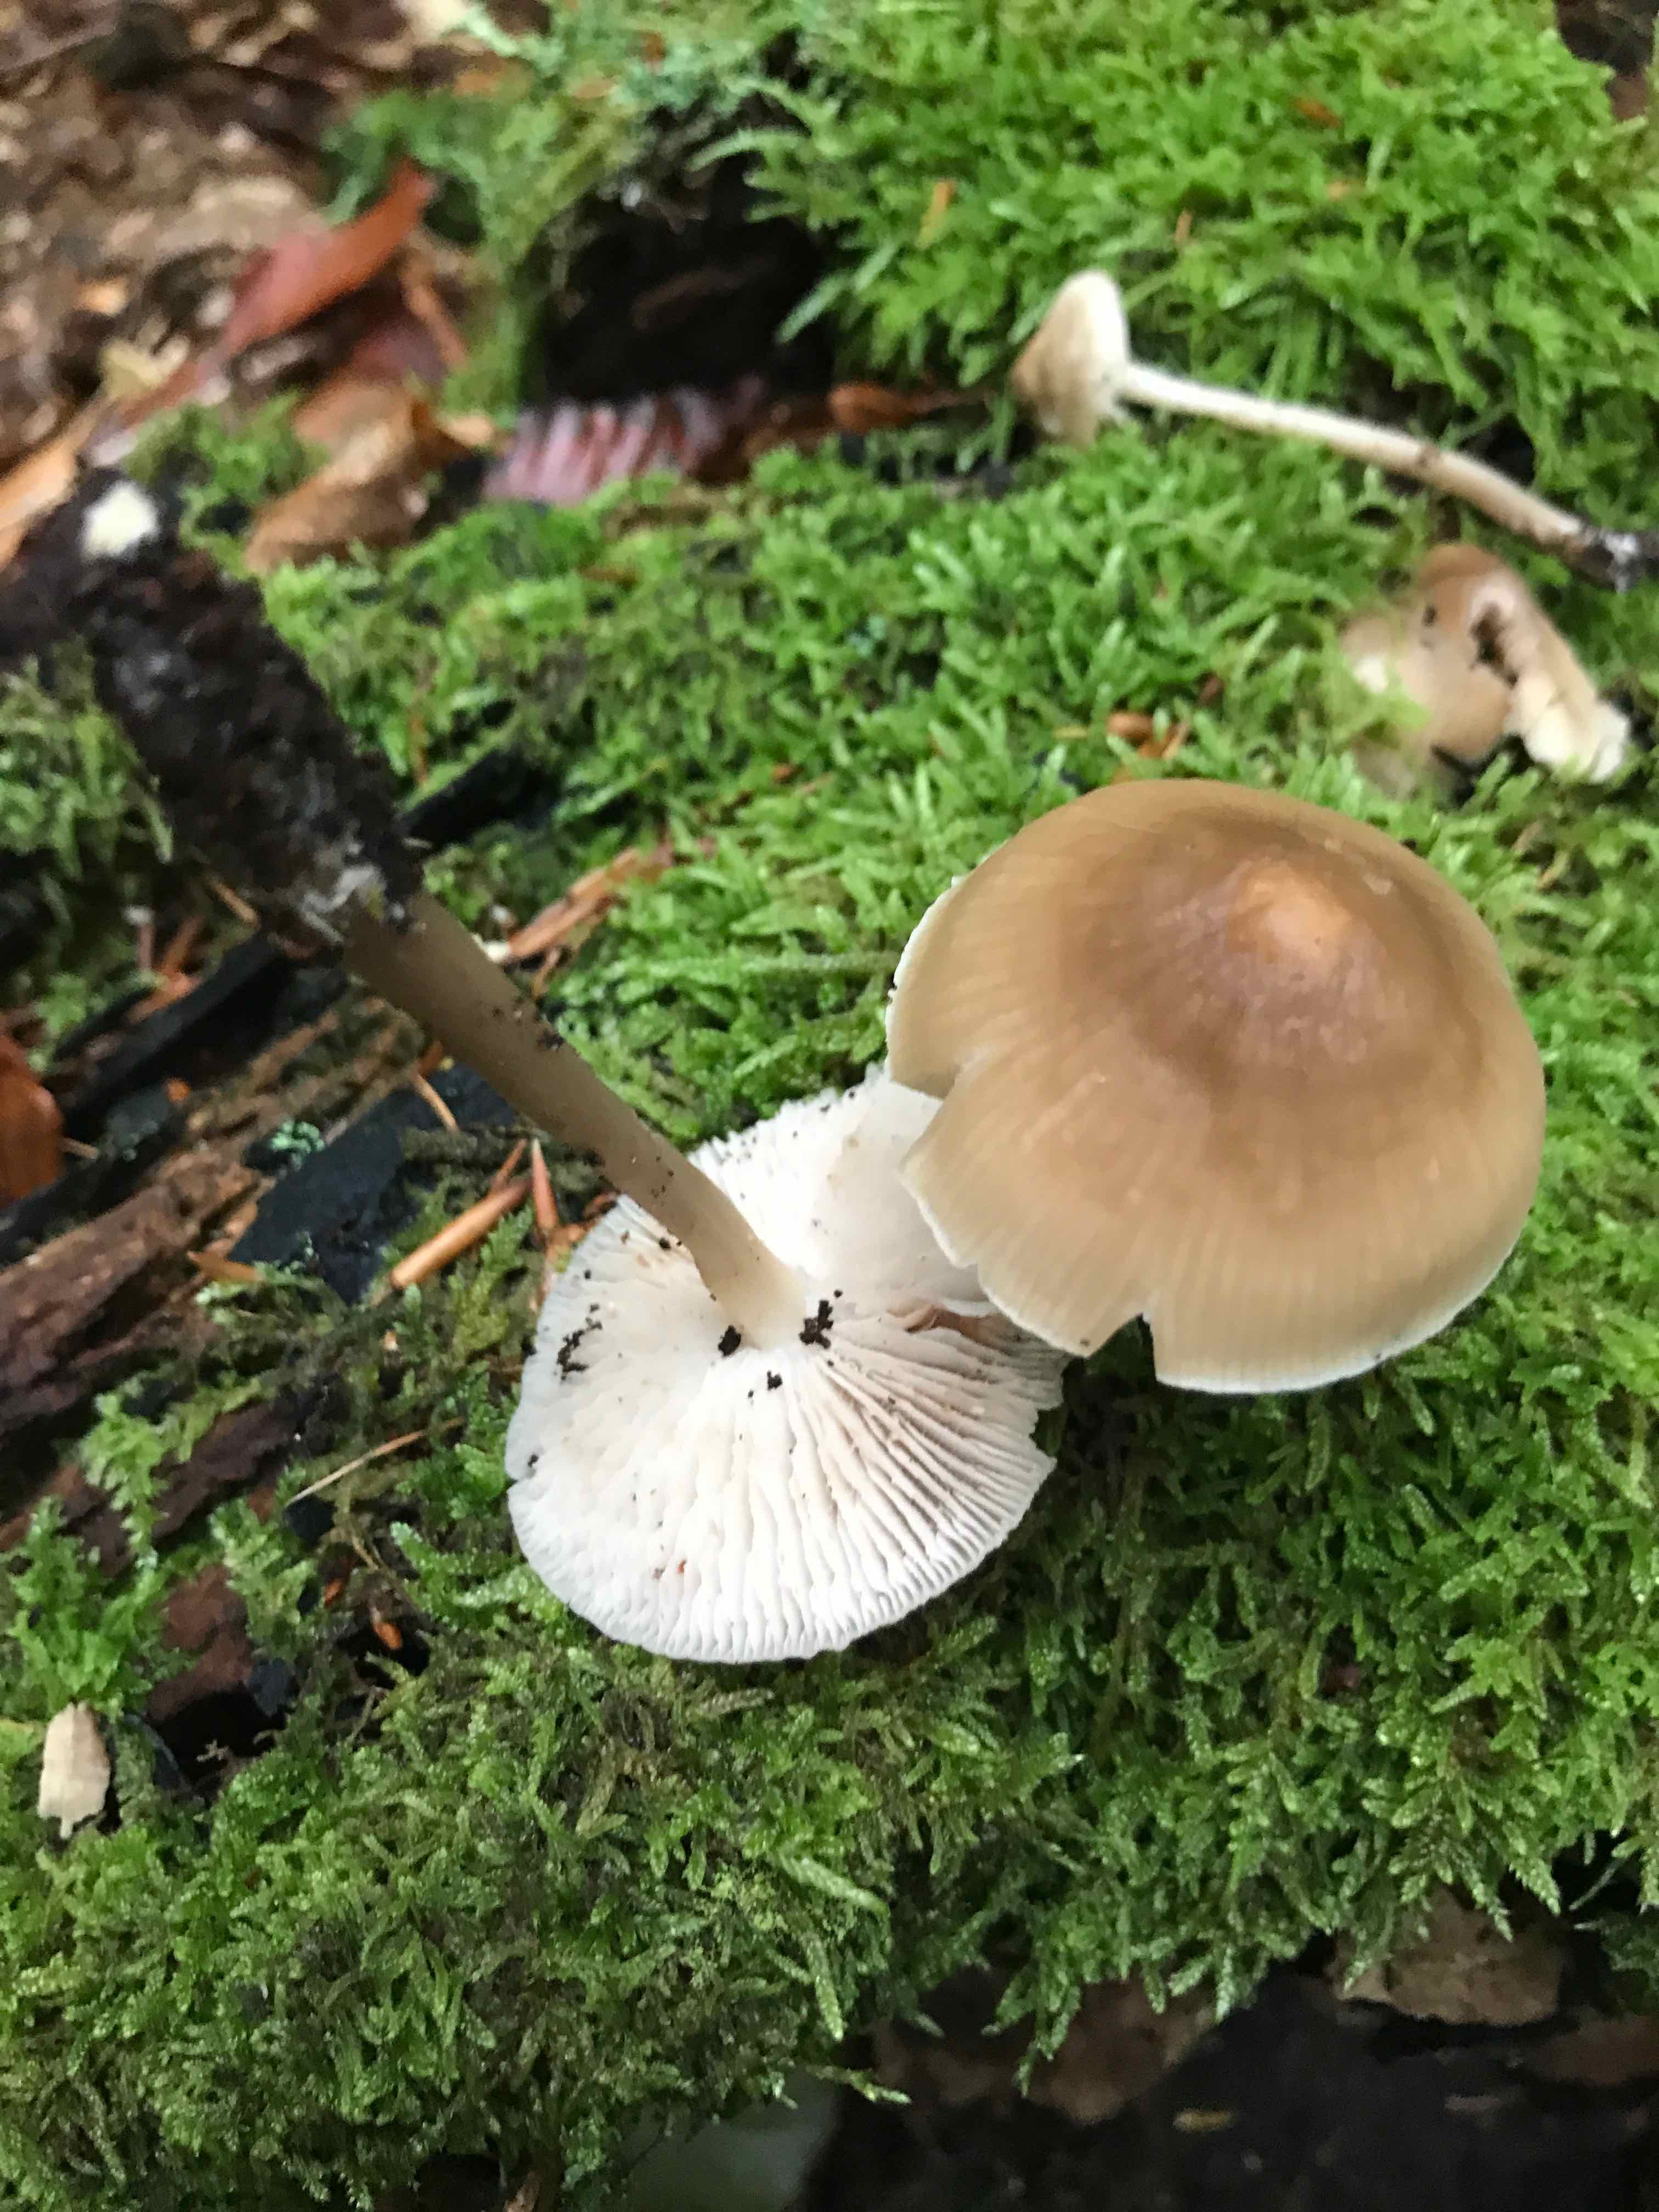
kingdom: Fungi
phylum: Basidiomycota
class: Agaricomycetes
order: Agaricales
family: Mycenaceae
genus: Mycena
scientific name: Mycena galericulata
